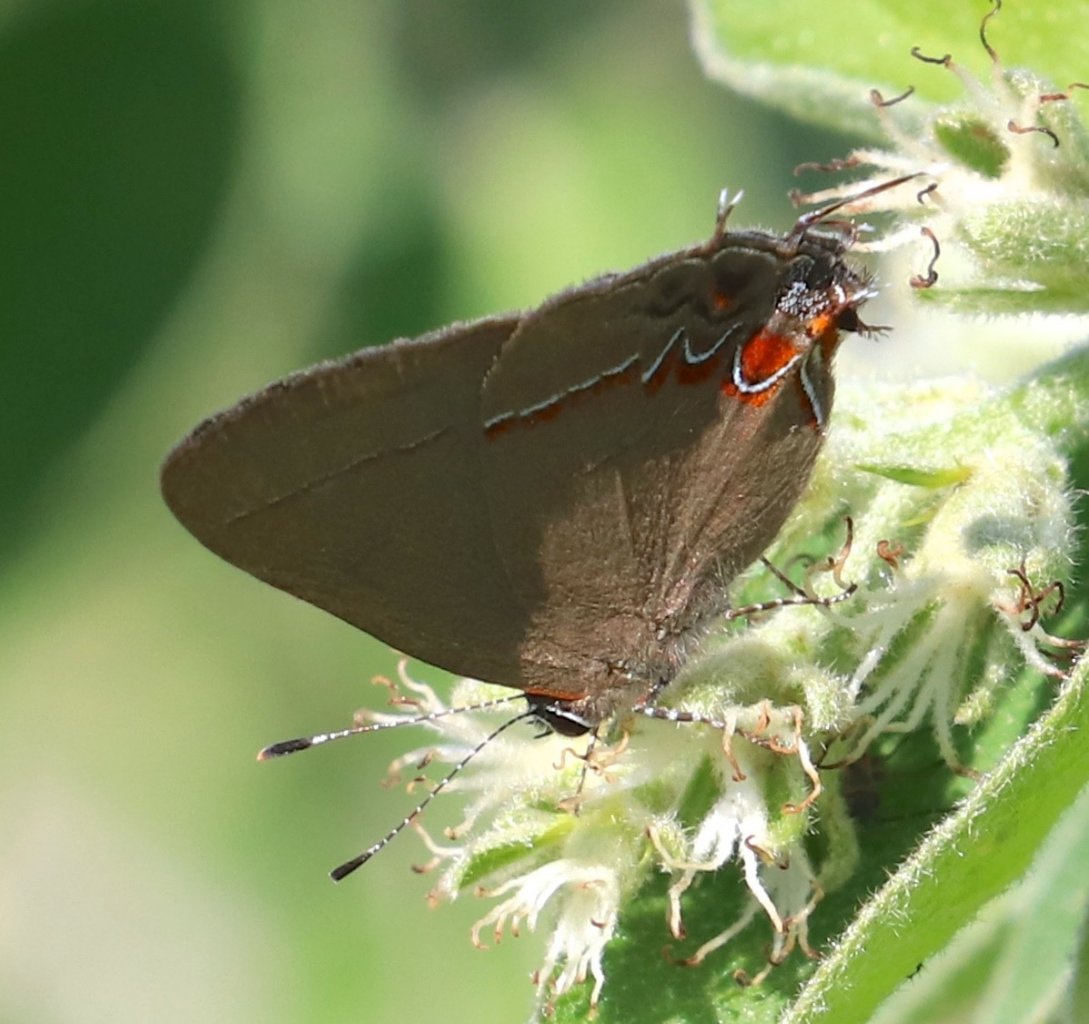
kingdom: Animalia
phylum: Arthropoda
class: Insecta
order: Lepidoptera
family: Lycaenidae
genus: Calycopis
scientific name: Calycopis isobeon
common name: Dusky-blue Groundstreak
